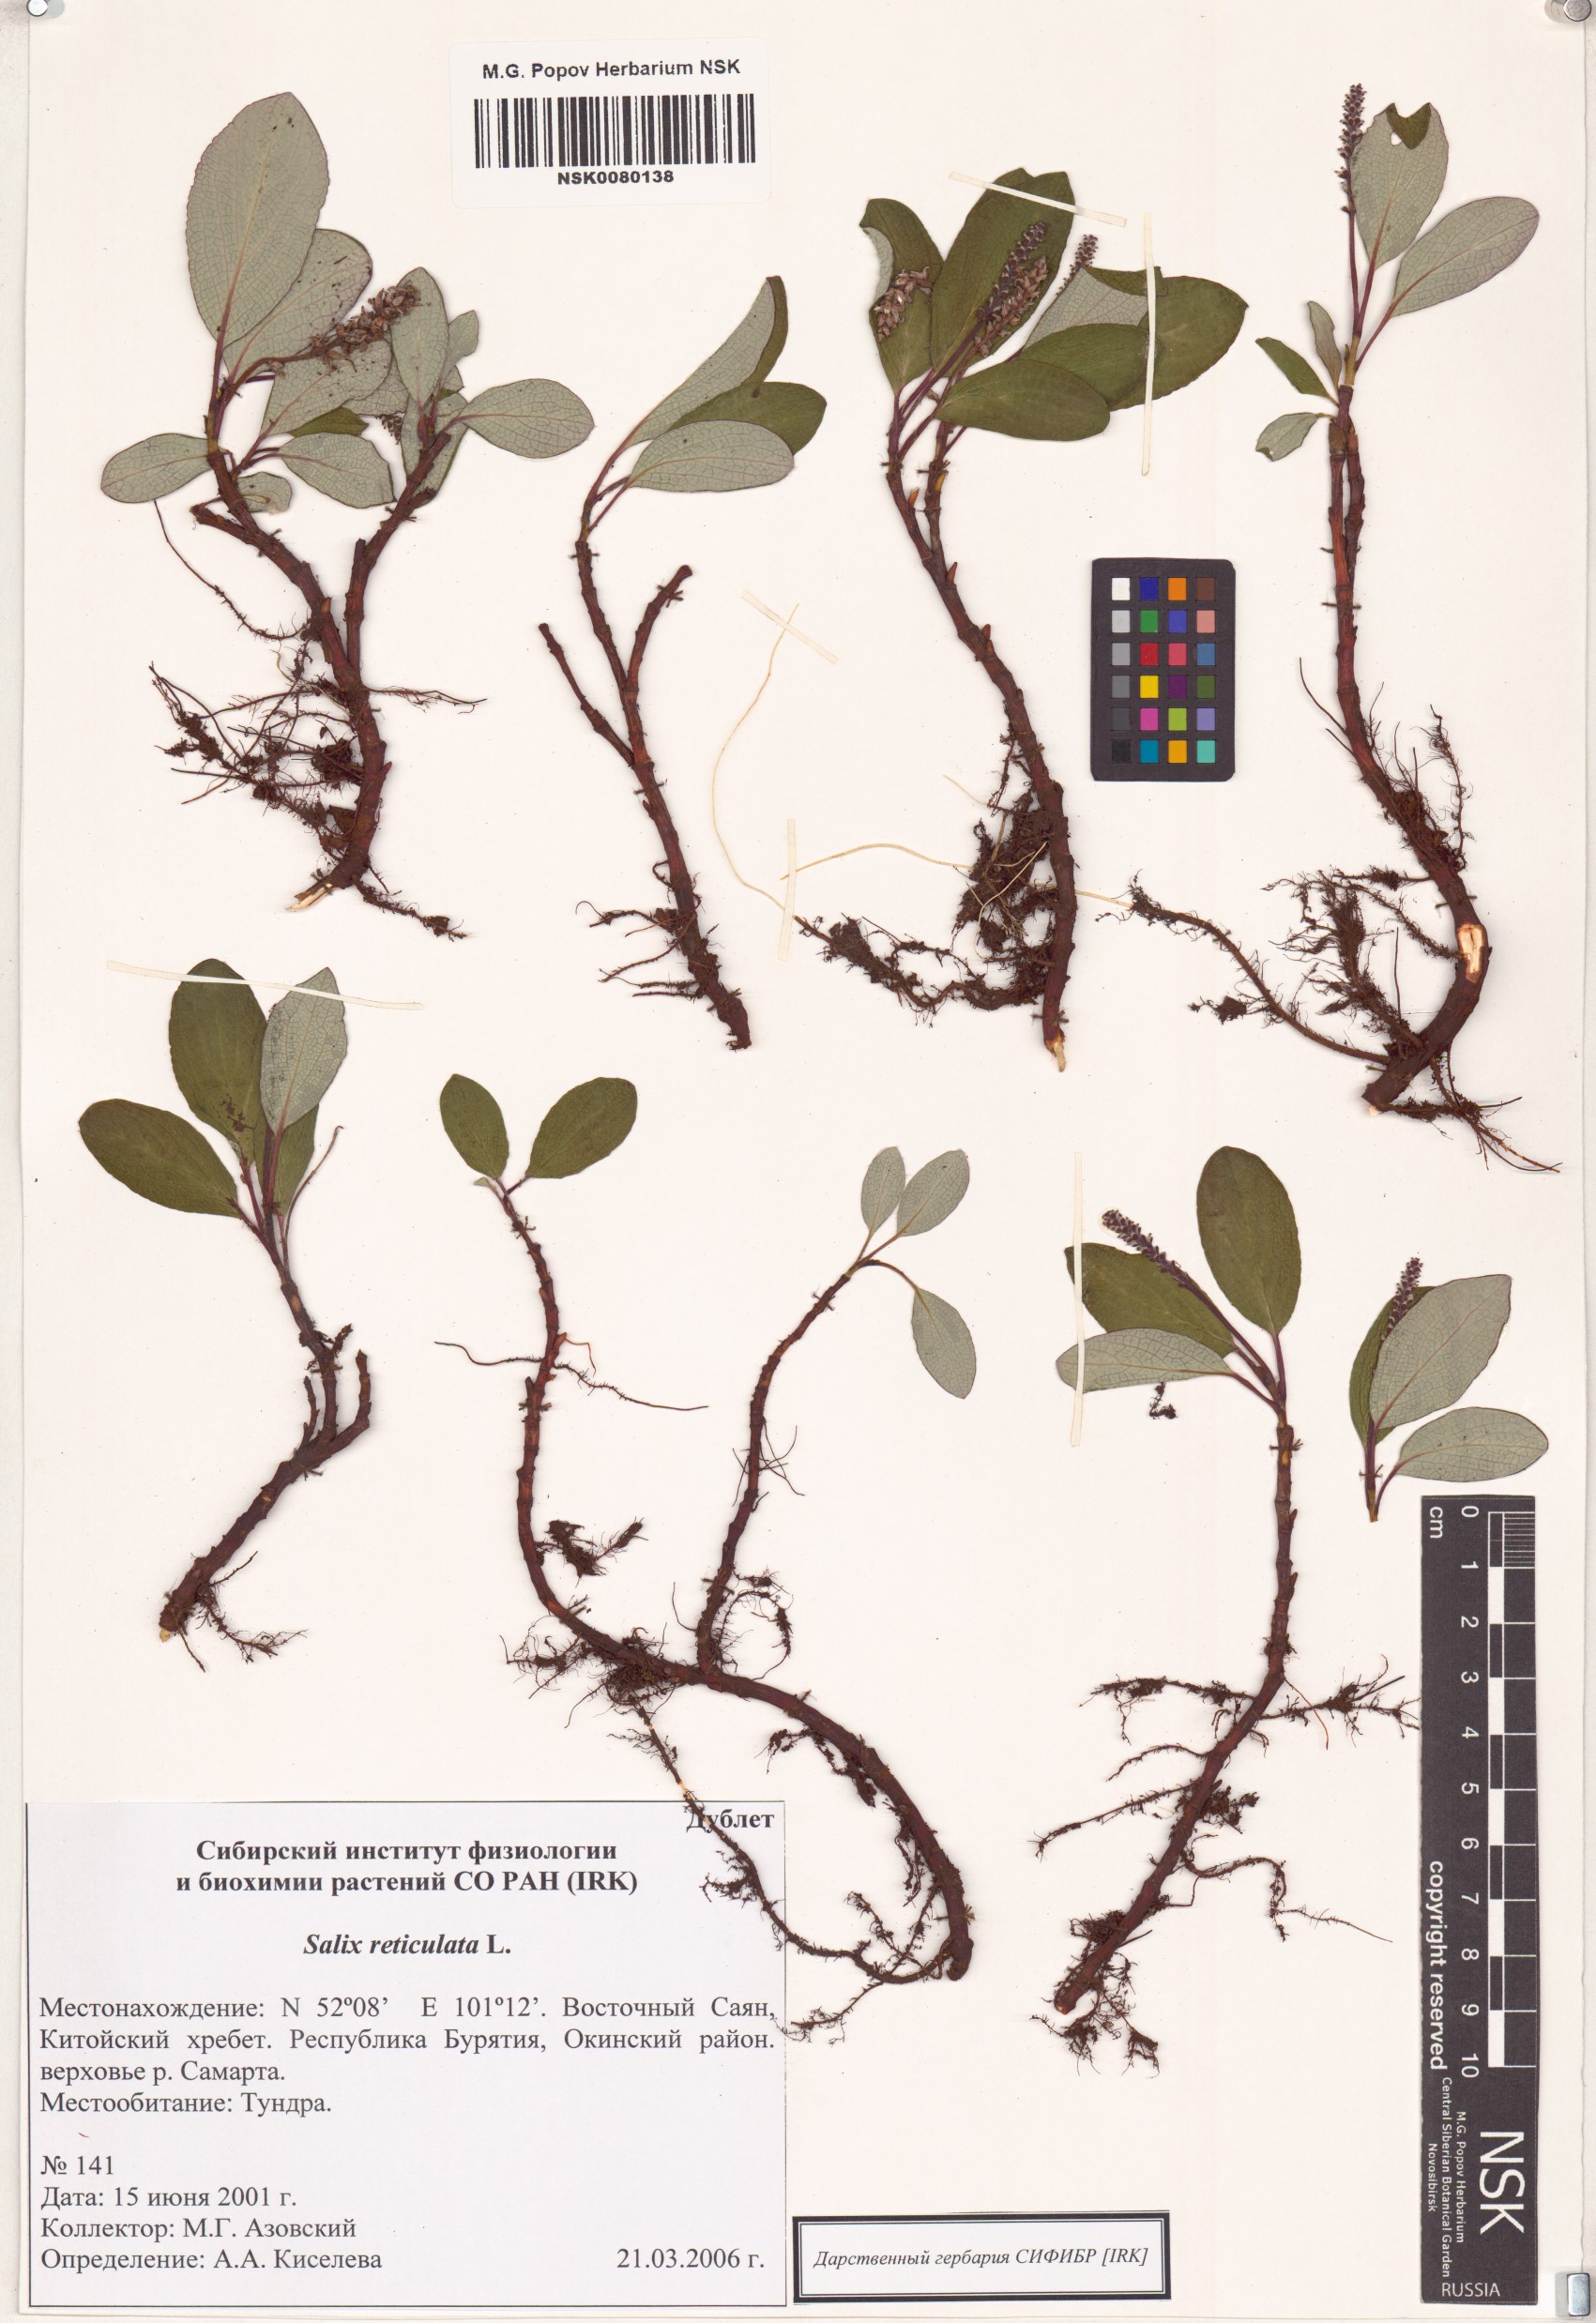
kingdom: Plantae
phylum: Tracheophyta
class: Magnoliopsida
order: Malpighiales
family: Salicaceae
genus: Salix
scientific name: Salix reticulata
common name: Net-leaved willow
